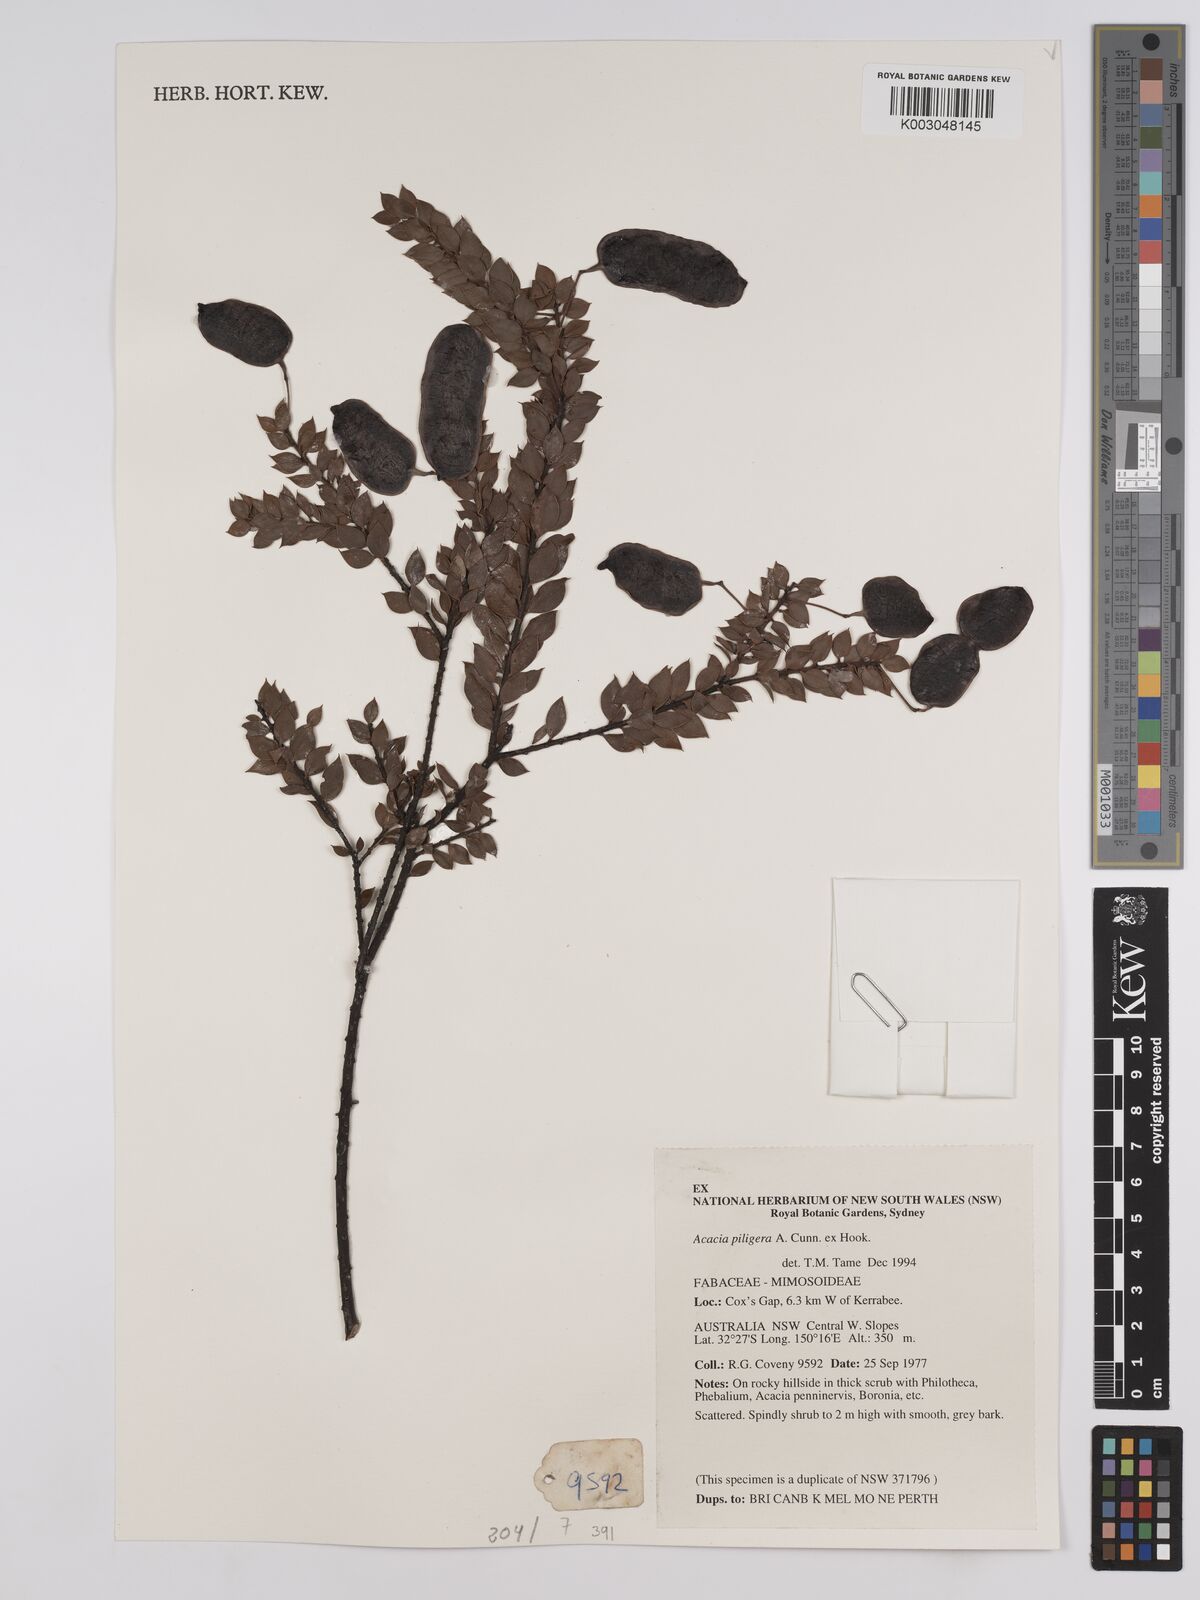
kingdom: Plantae
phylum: Tracheophyta
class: Magnoliopsida
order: Fabales
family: Fabaceae
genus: Acacia
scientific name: Acacia undulifolia
